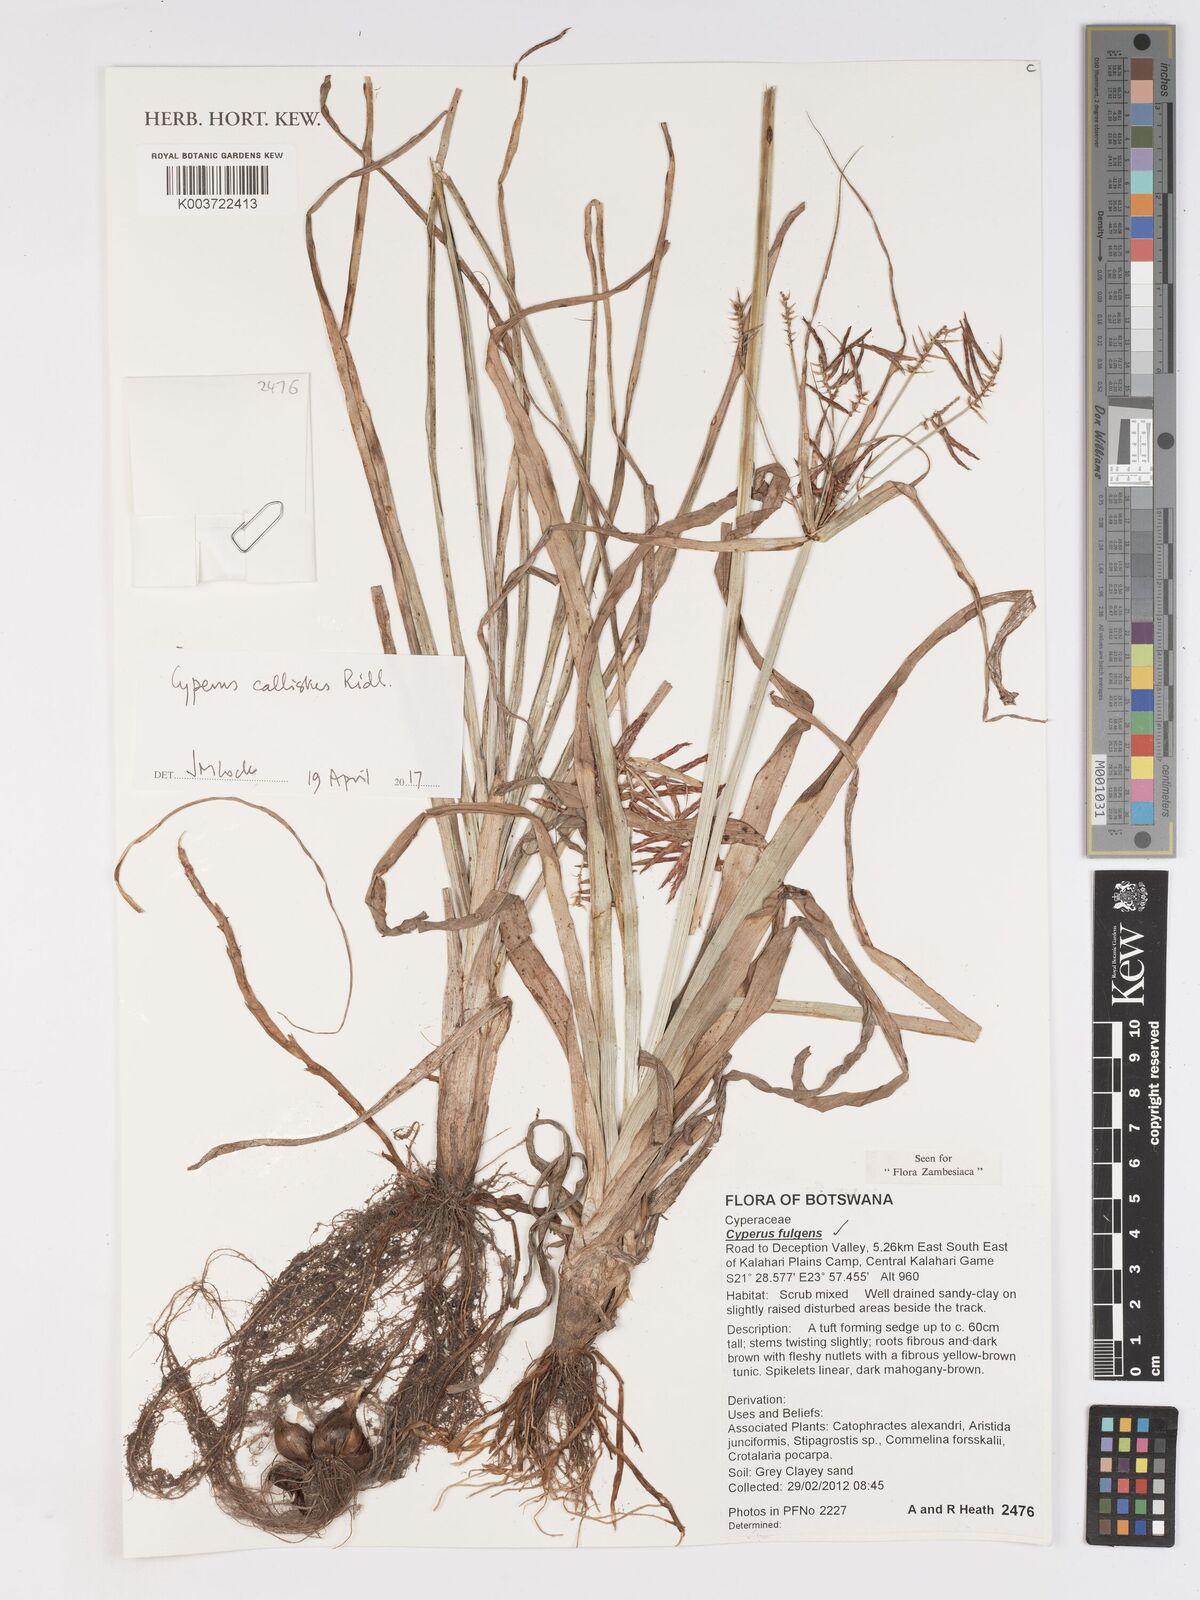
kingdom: Plantae
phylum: Tracheophyta
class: Liliopsida
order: Poales
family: Cyperaceae
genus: Cyperus
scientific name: Cyperus callistus
